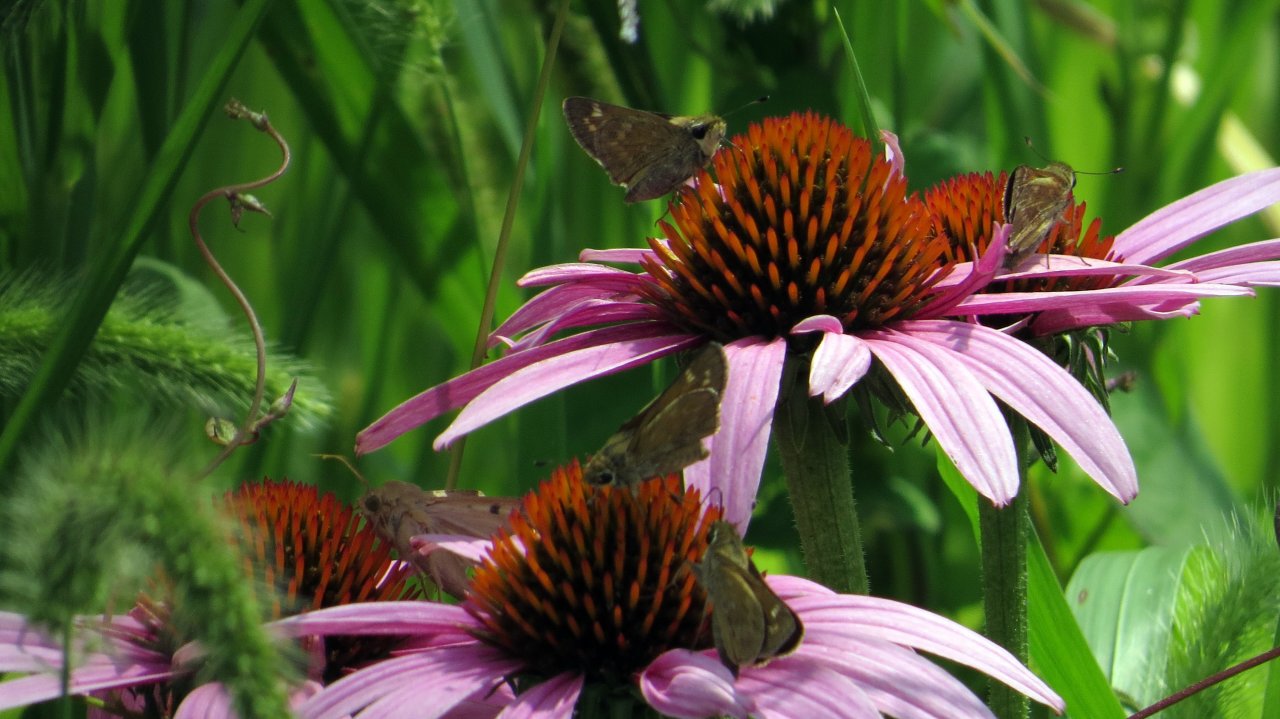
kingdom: Animalia
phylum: Arthropoda
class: Insecta
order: Lepidoptera
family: Hesperiidae
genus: Atalopedes
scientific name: Atalopedes campestris
